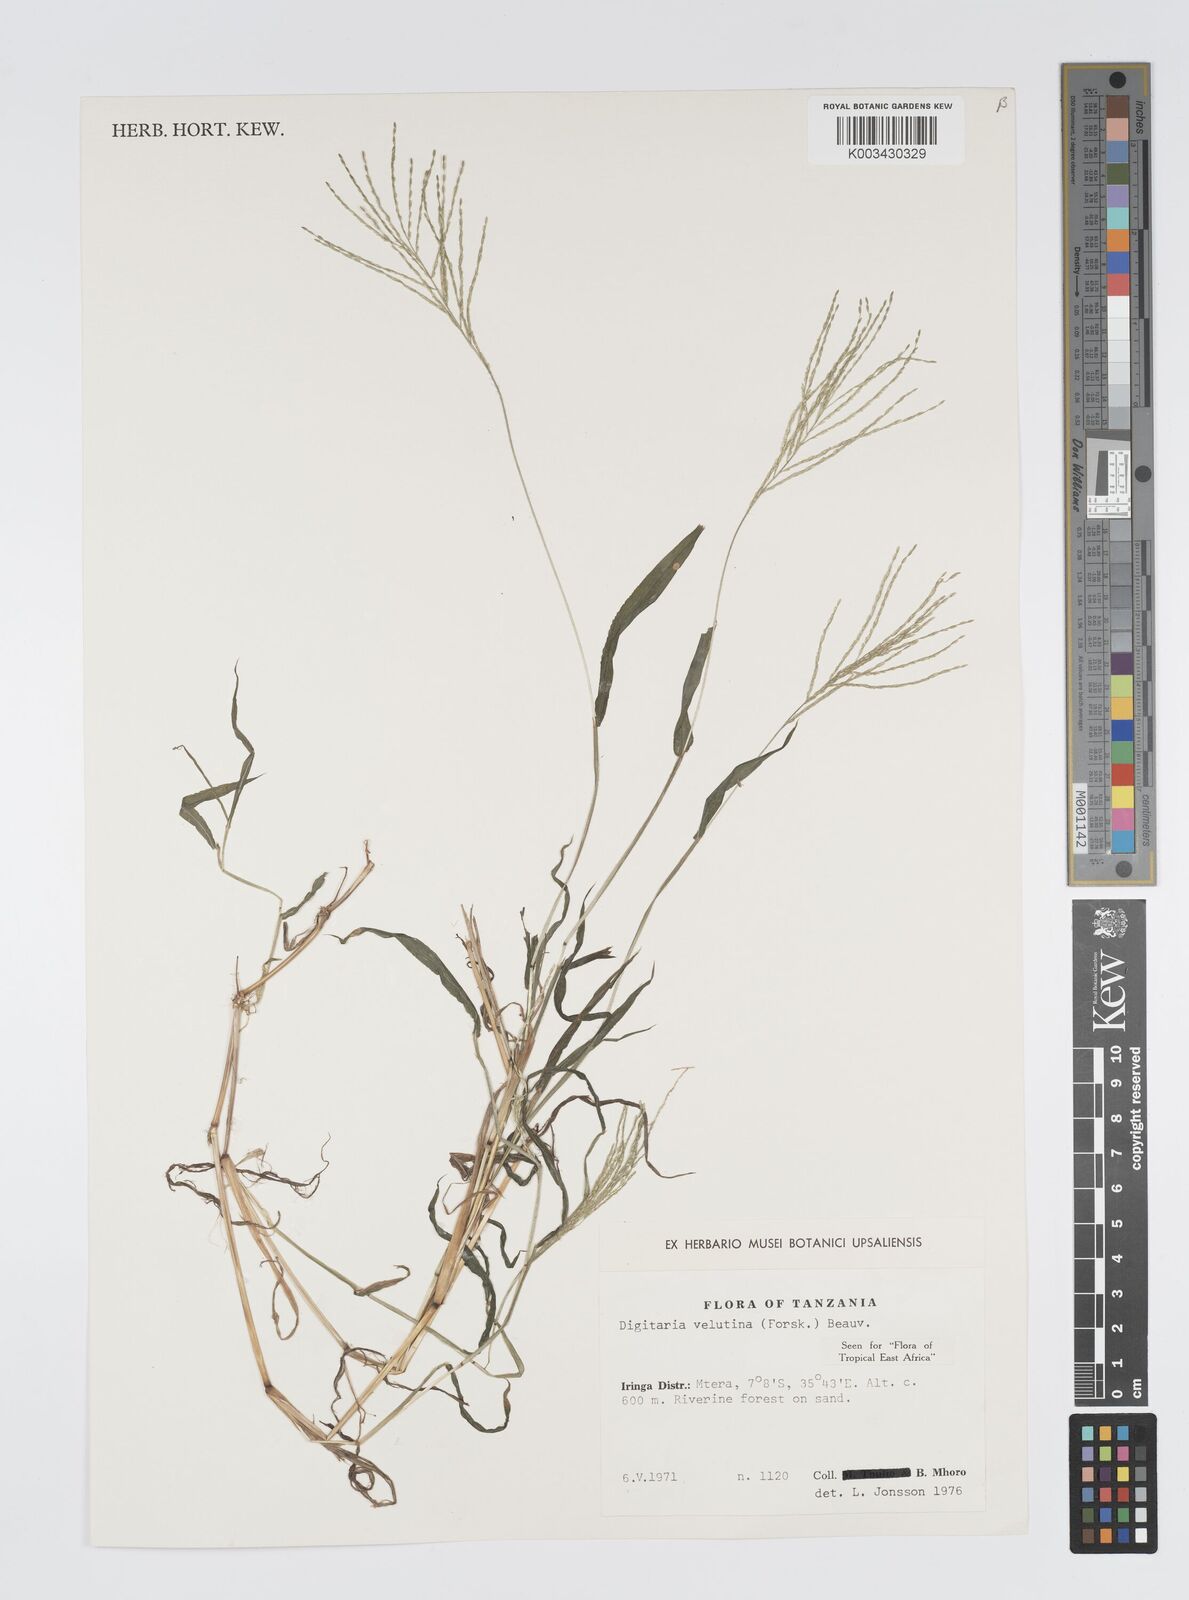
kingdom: Plantae
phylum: Tracheophyta
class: Liliopsida
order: Poales
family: Poaceae
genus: Digitaria
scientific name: Digitaria velutina
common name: Long-plume finger grass
